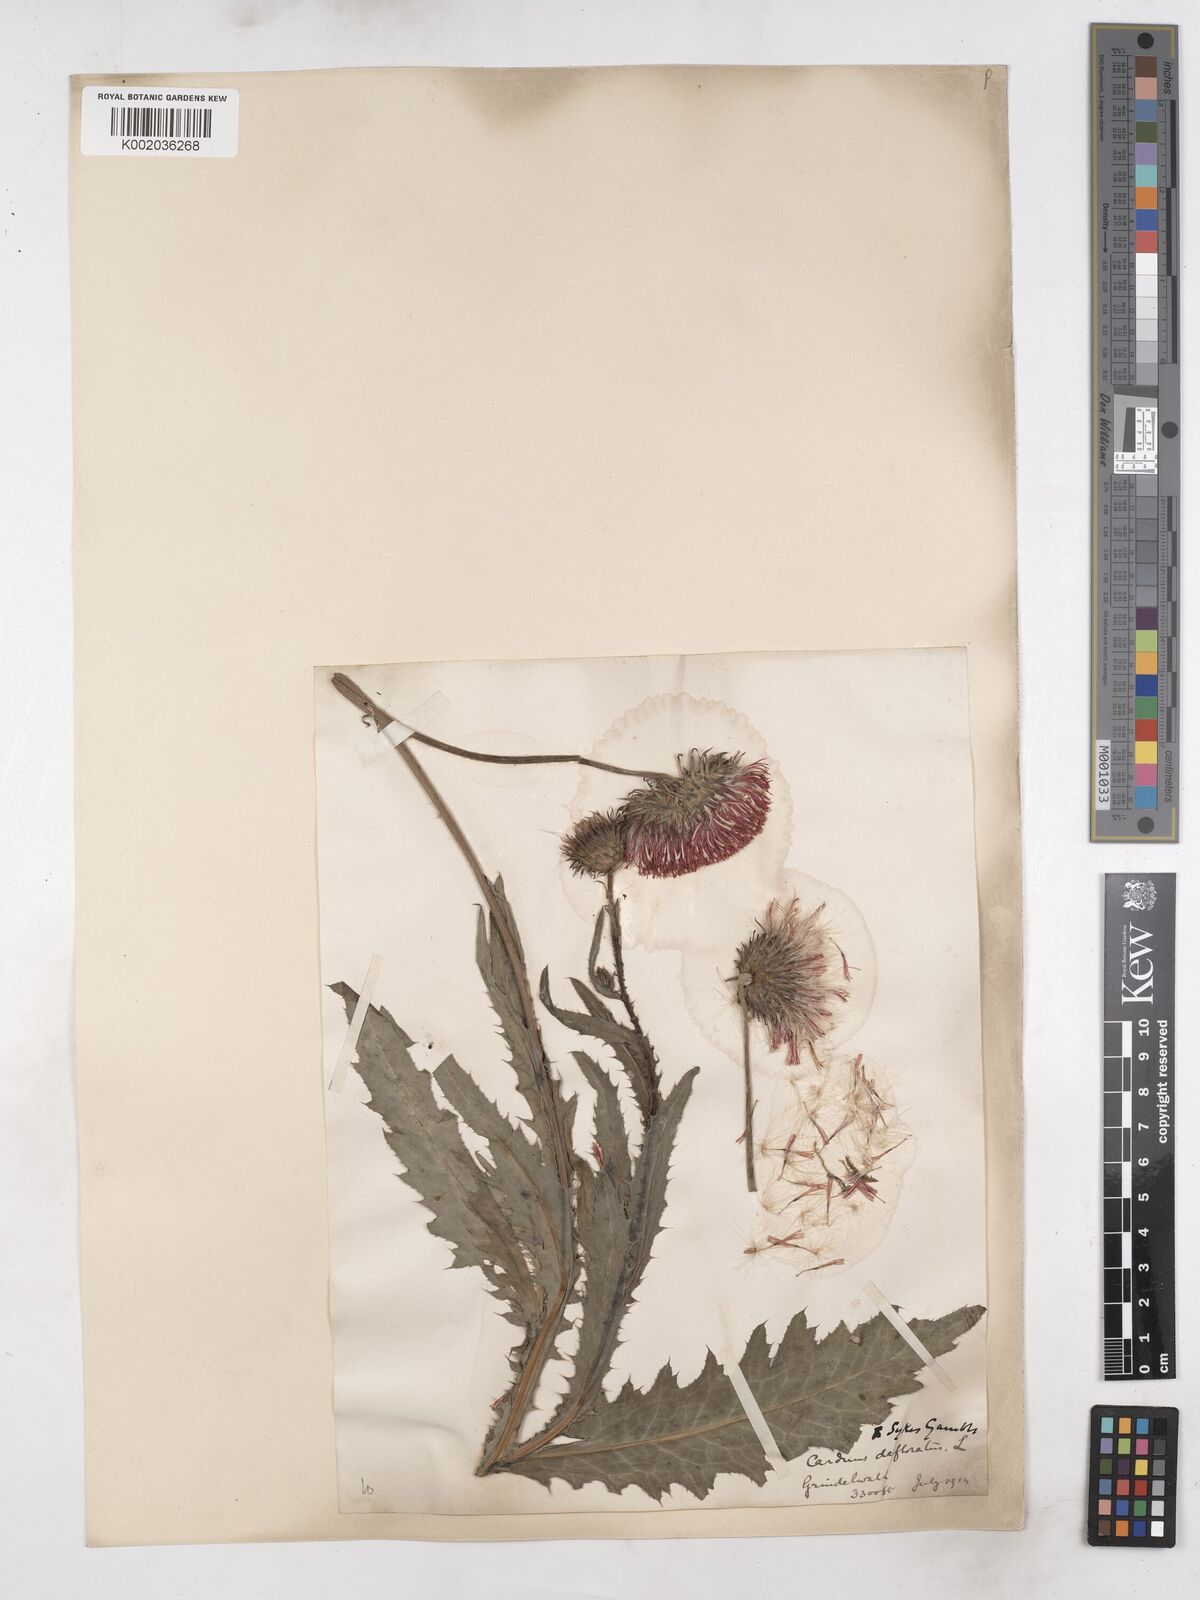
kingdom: Plantae
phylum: Tracheophyta
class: Magnoliopsida
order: Asterales
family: Asteraceae
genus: Carduus
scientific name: Carduus defloratus
